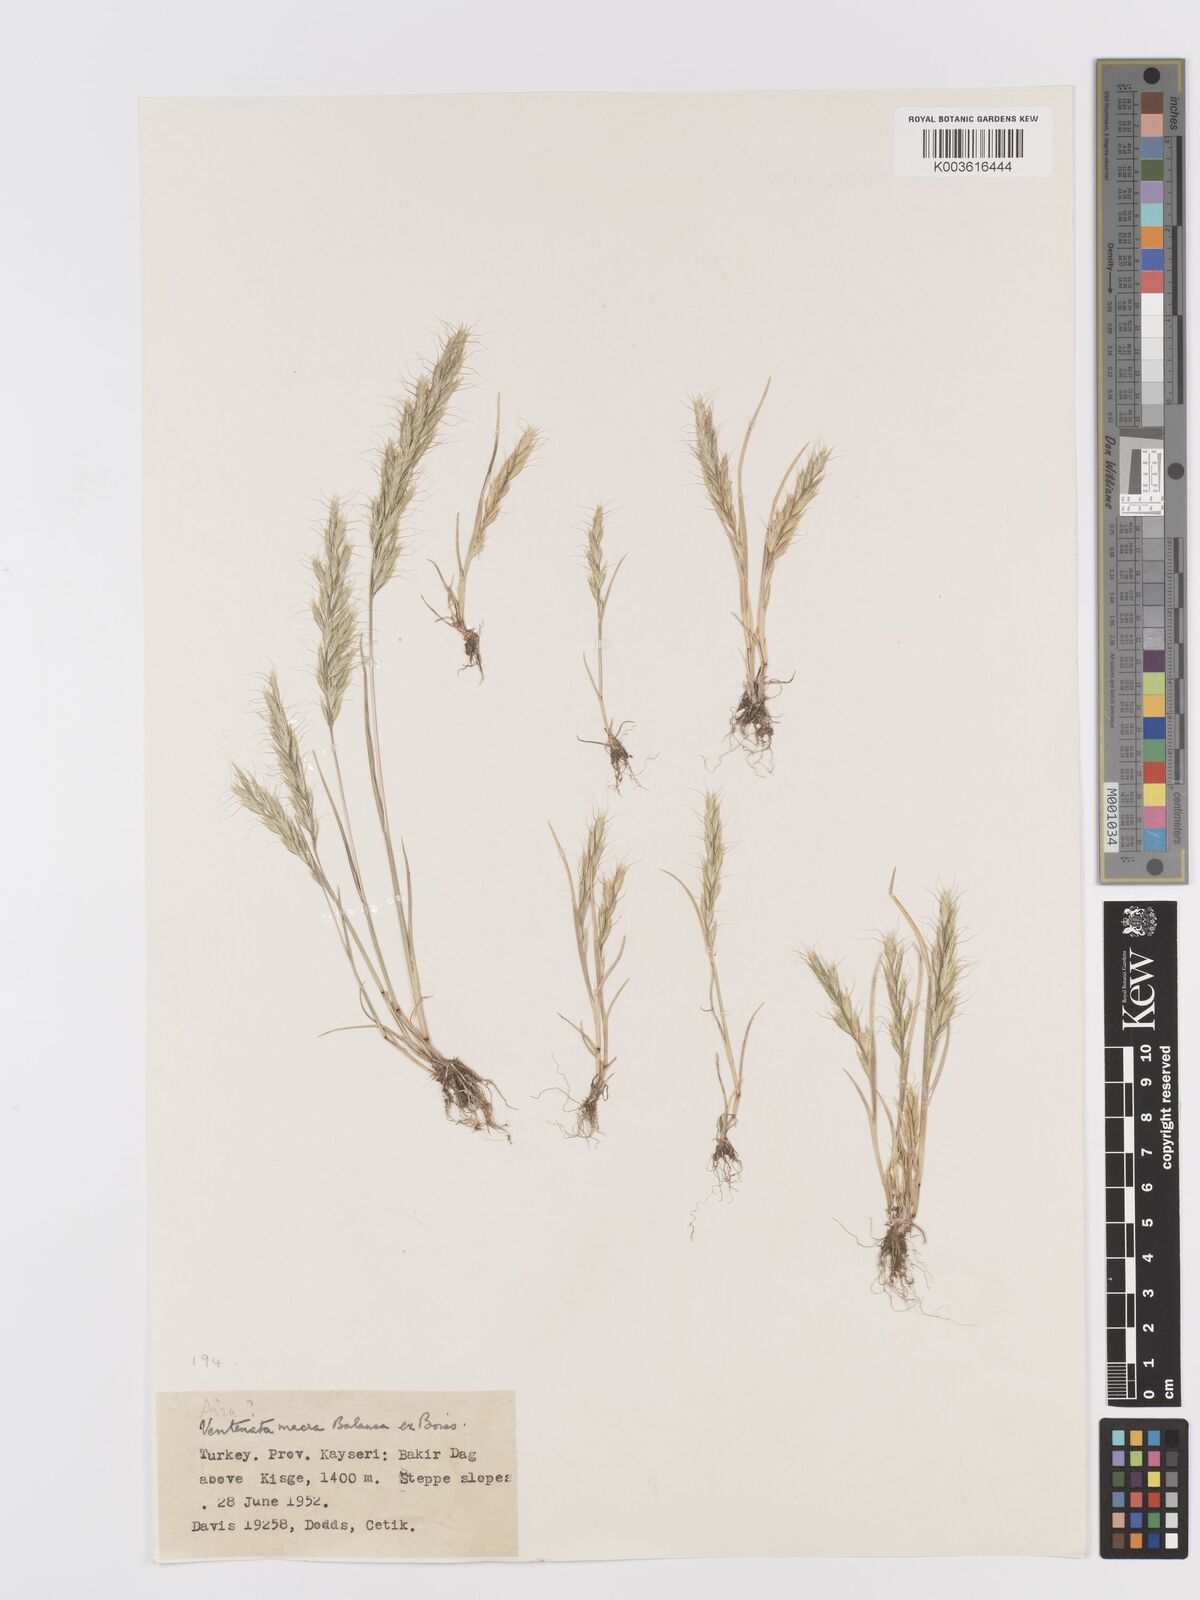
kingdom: Plantae
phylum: Tracheophyta
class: Liliopsida
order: Poales
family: Poaceae
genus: Ventenata
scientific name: Ventenata macra
